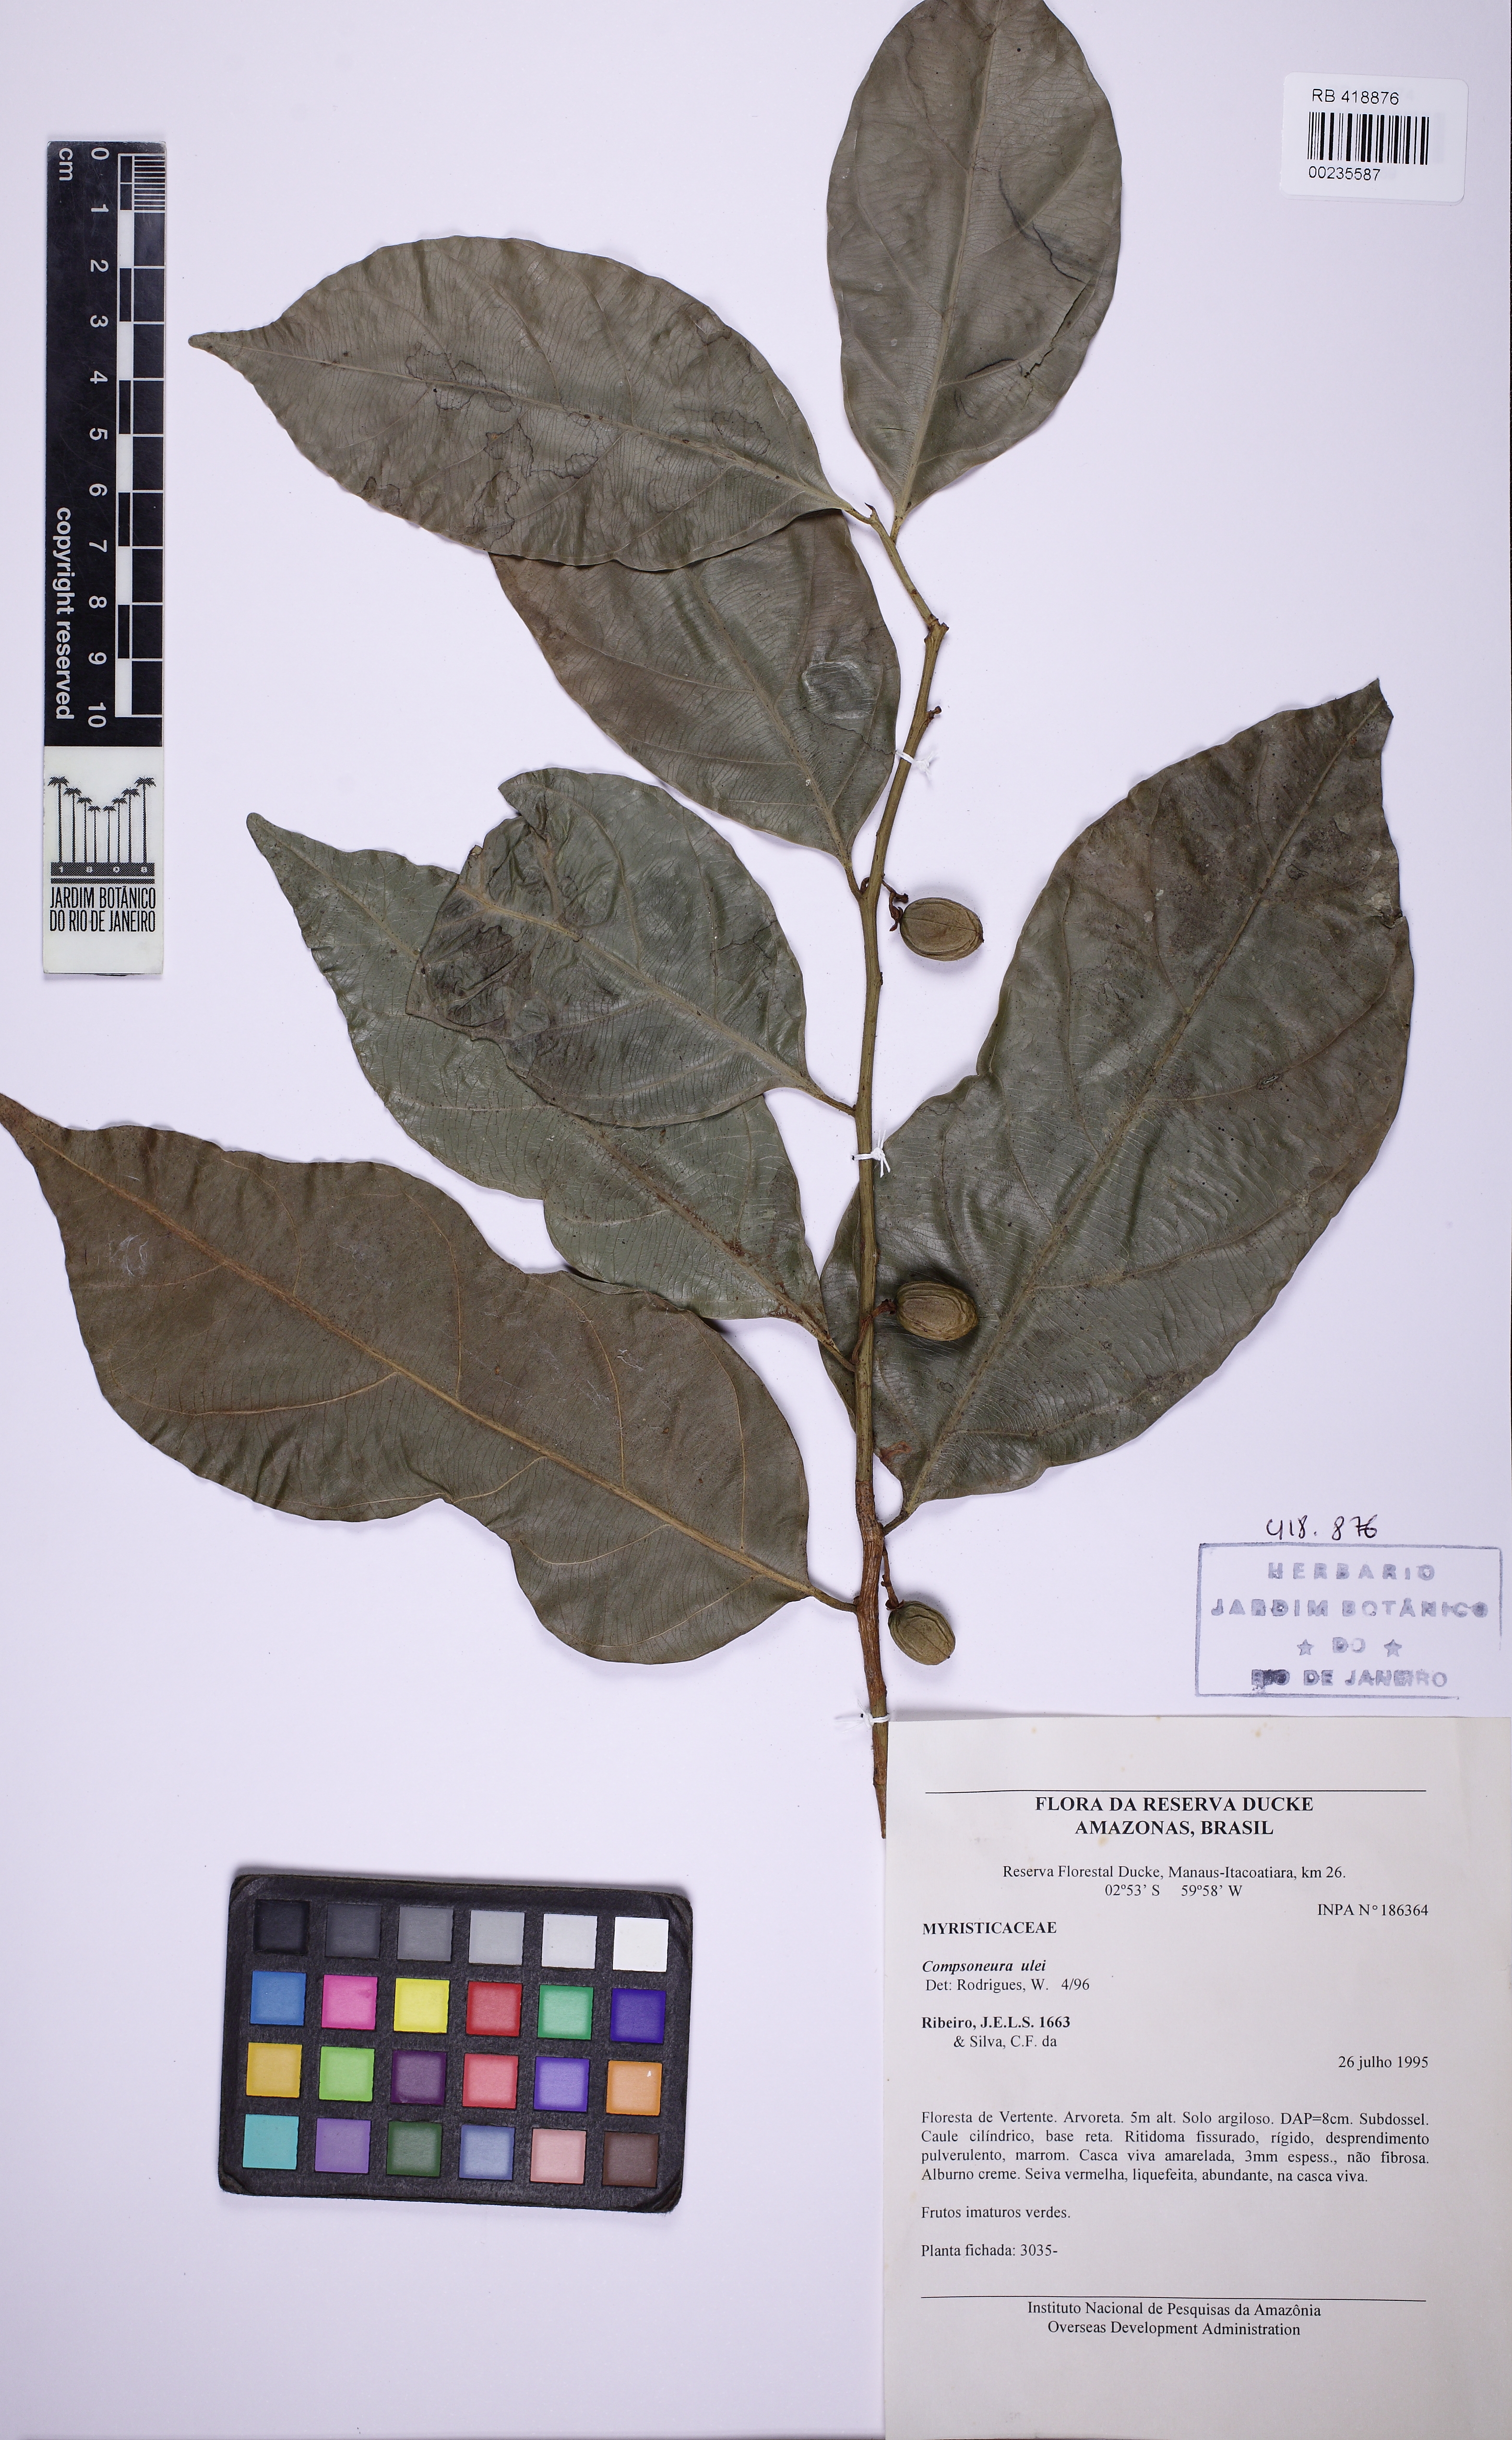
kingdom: Plantae
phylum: Tracheophyta
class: Magnoliopsida
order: Magnoliales
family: Myristicaceae
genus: Compsoneura
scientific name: Compsoneura ulei
